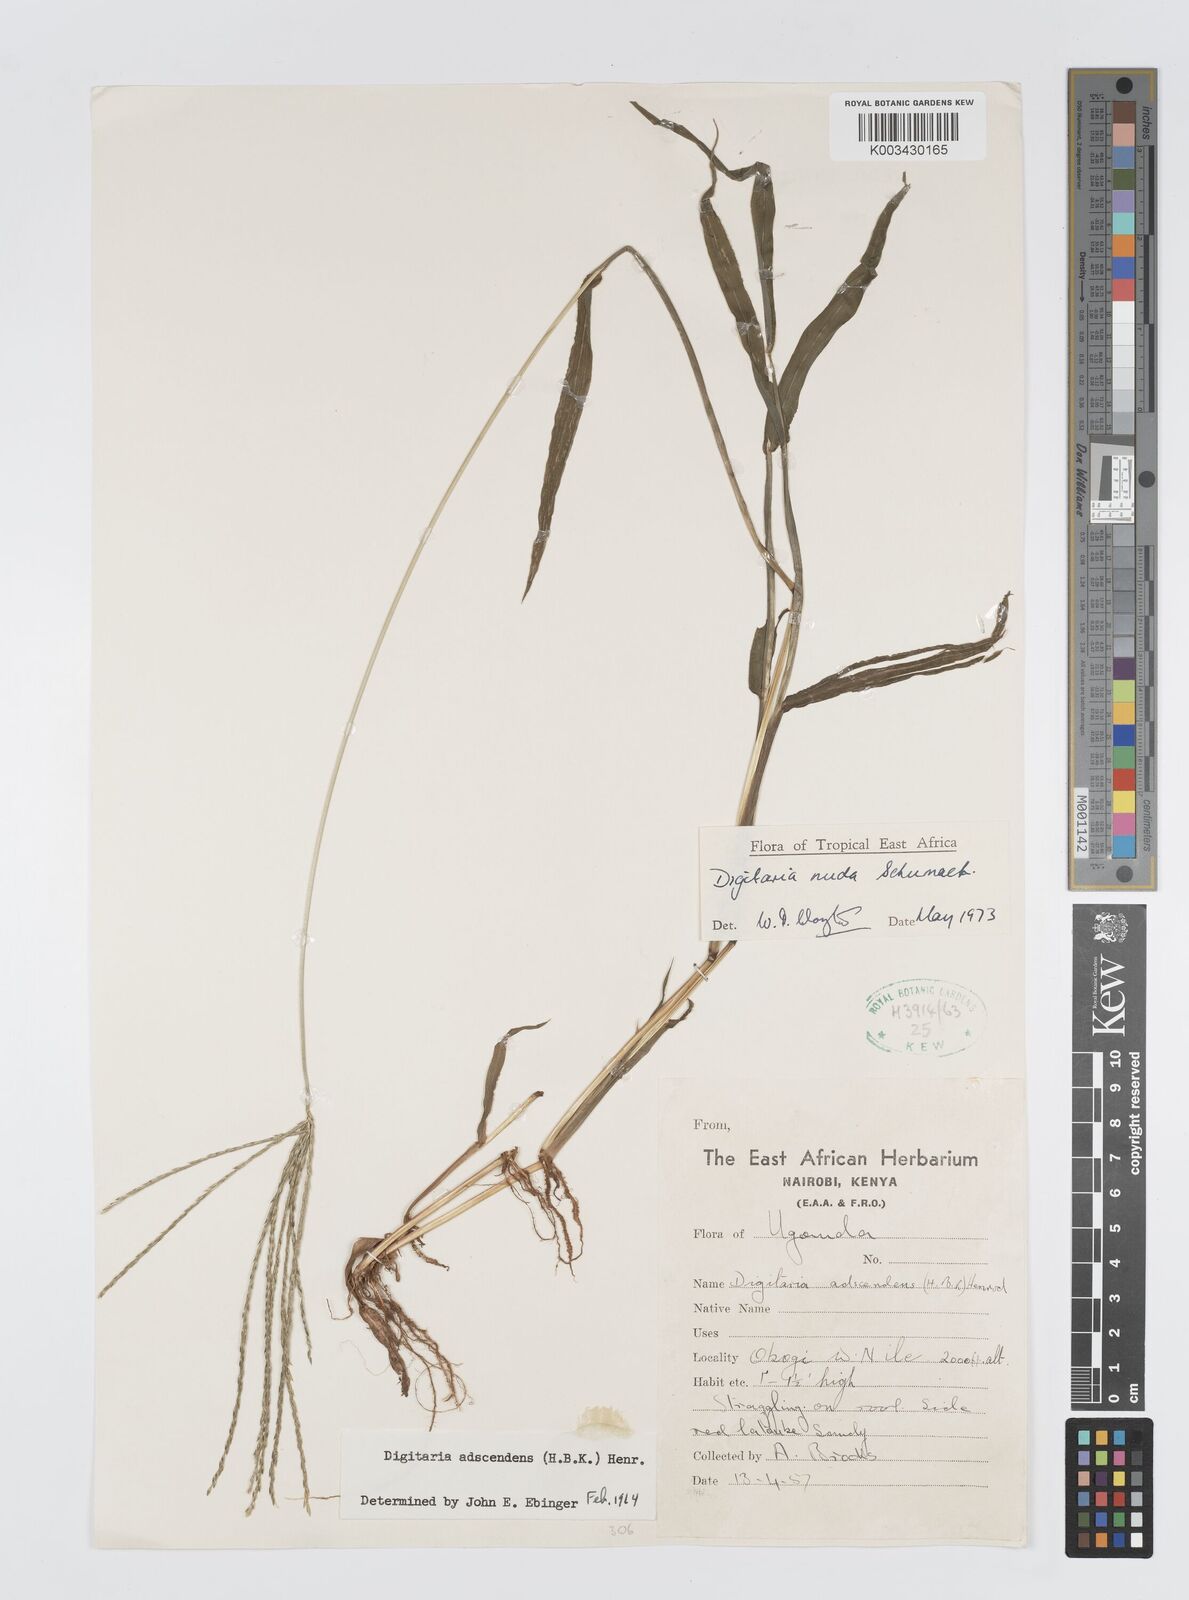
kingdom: Plantae
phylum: Tracheophyta
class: Liliopsida
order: Poales
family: Poaceae
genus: Digitaria
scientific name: Digitaria nuda
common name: Naked crabgrass
